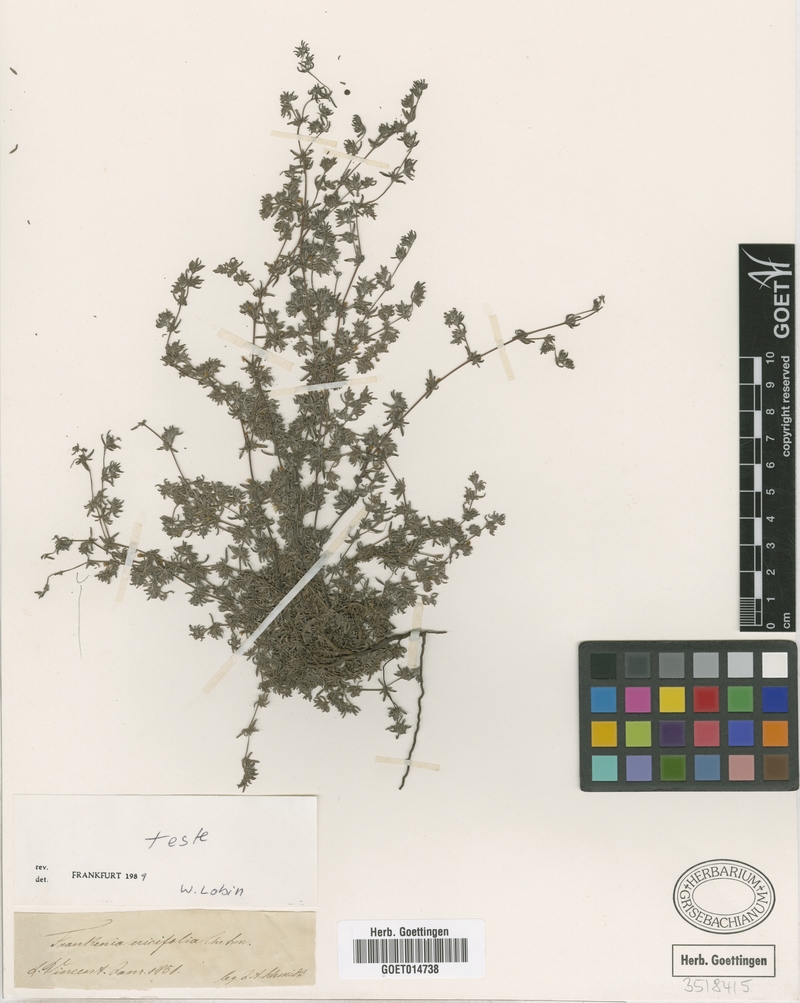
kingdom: Plantae
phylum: Tracheophyta
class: Magnoliopsida
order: Caryophyllales
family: Frankeniaceae
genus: Frankenia
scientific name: Frankenia ericifolia
